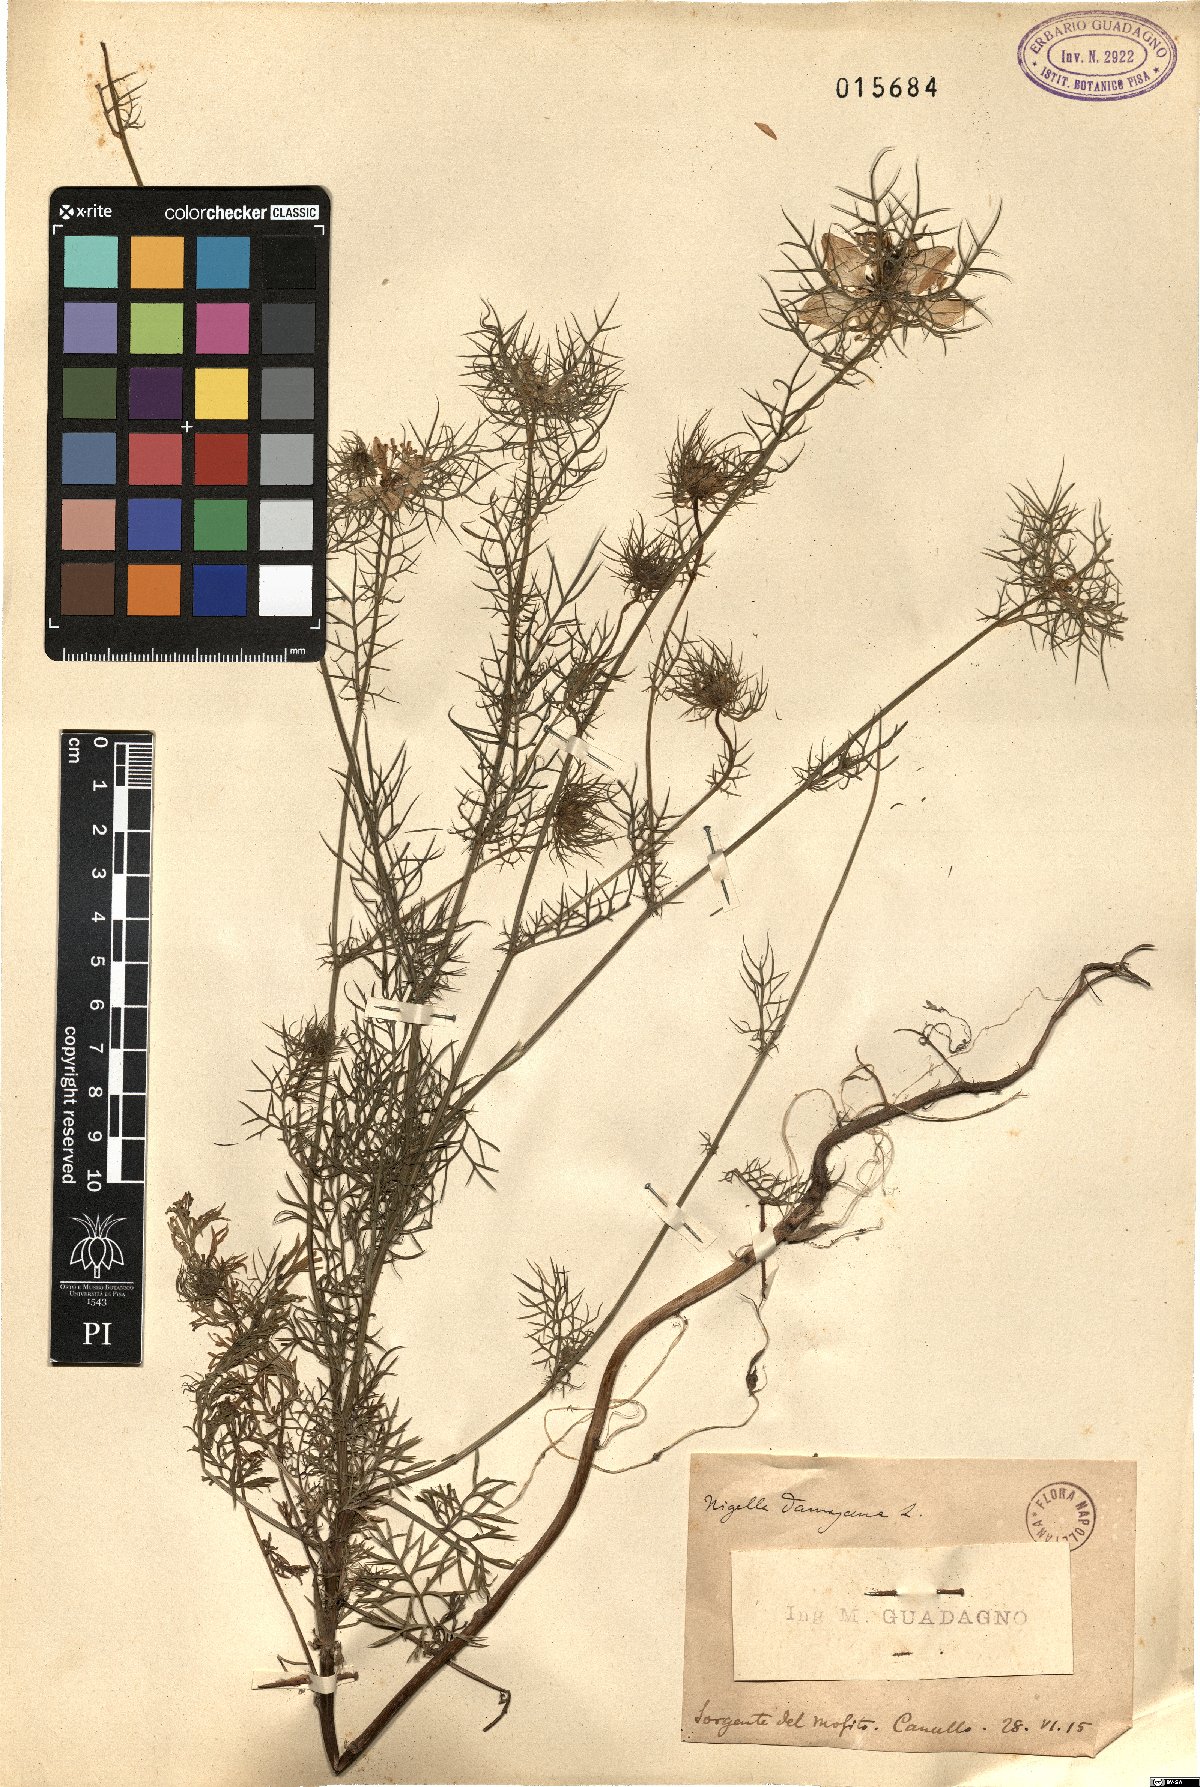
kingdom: Plantae
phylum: Tracheophyta
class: Magnoliopsida
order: Ranunculales
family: Ranunculaceae
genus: Nigella
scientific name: Nigella damascena
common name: Love-in-a-mist
